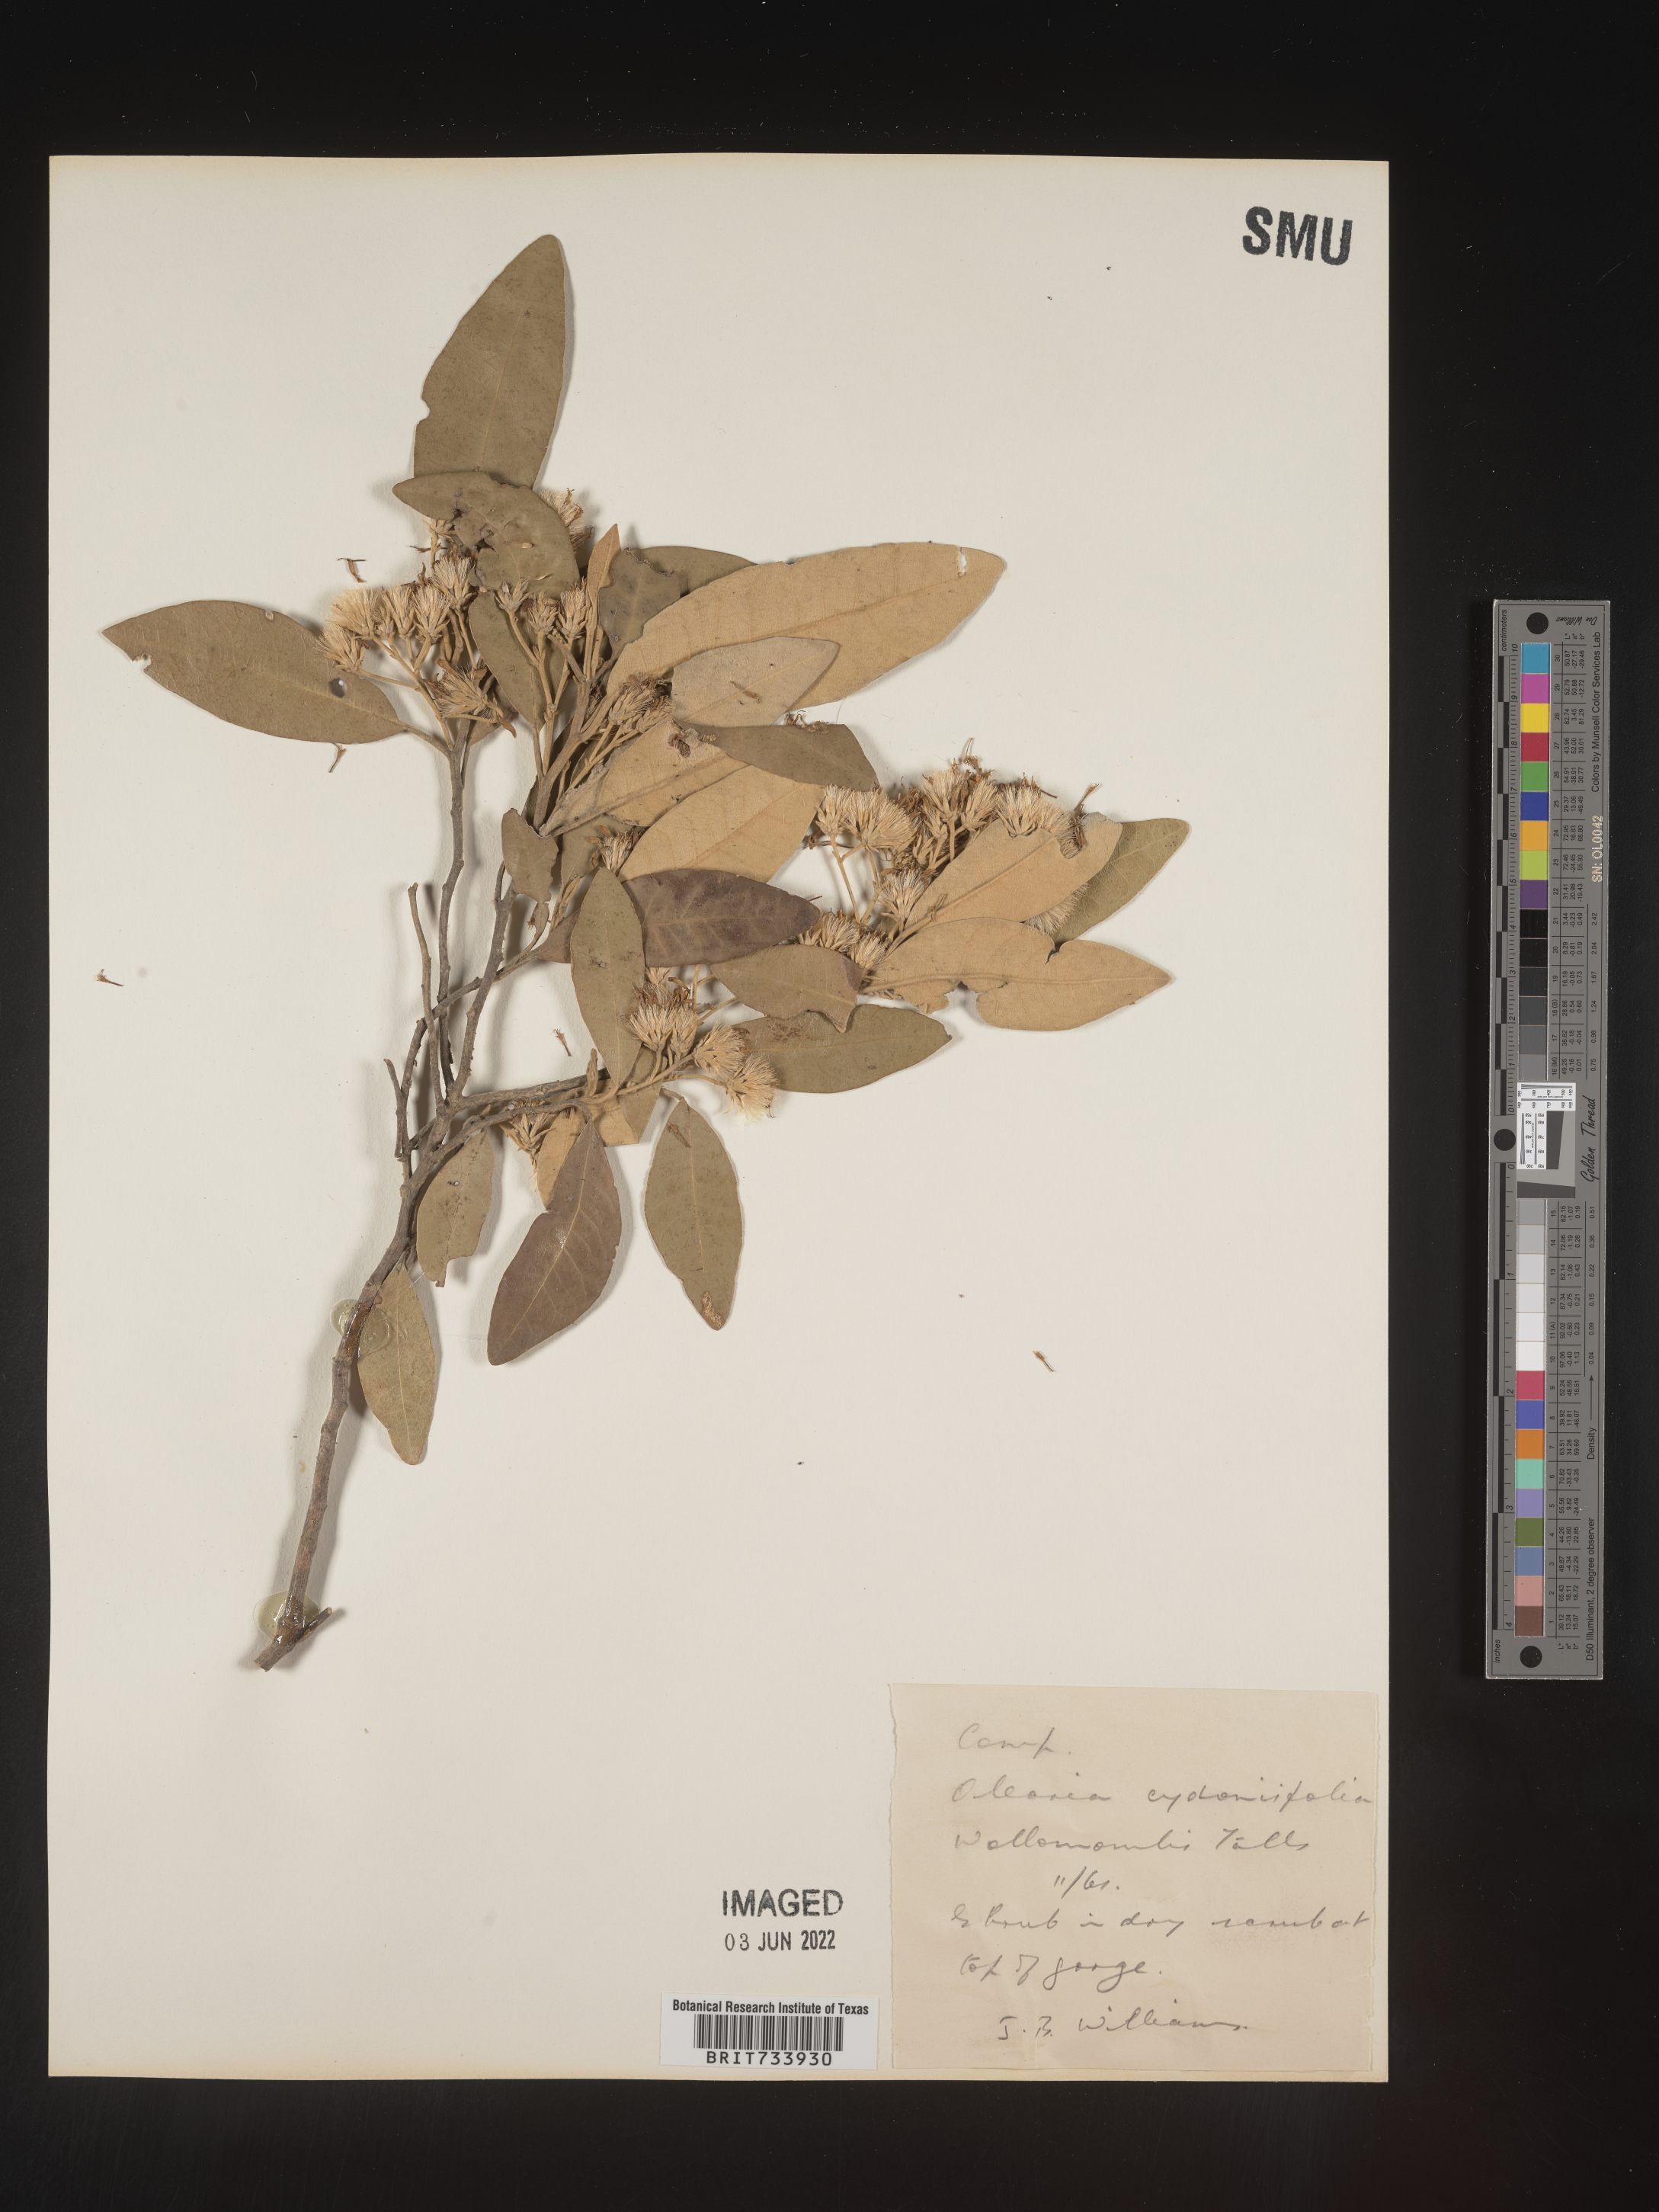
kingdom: Plantae
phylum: Tracheophyta
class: Magnoliopsida
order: Asterales
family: Asteraceae
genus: Olearia
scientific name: Olearia
